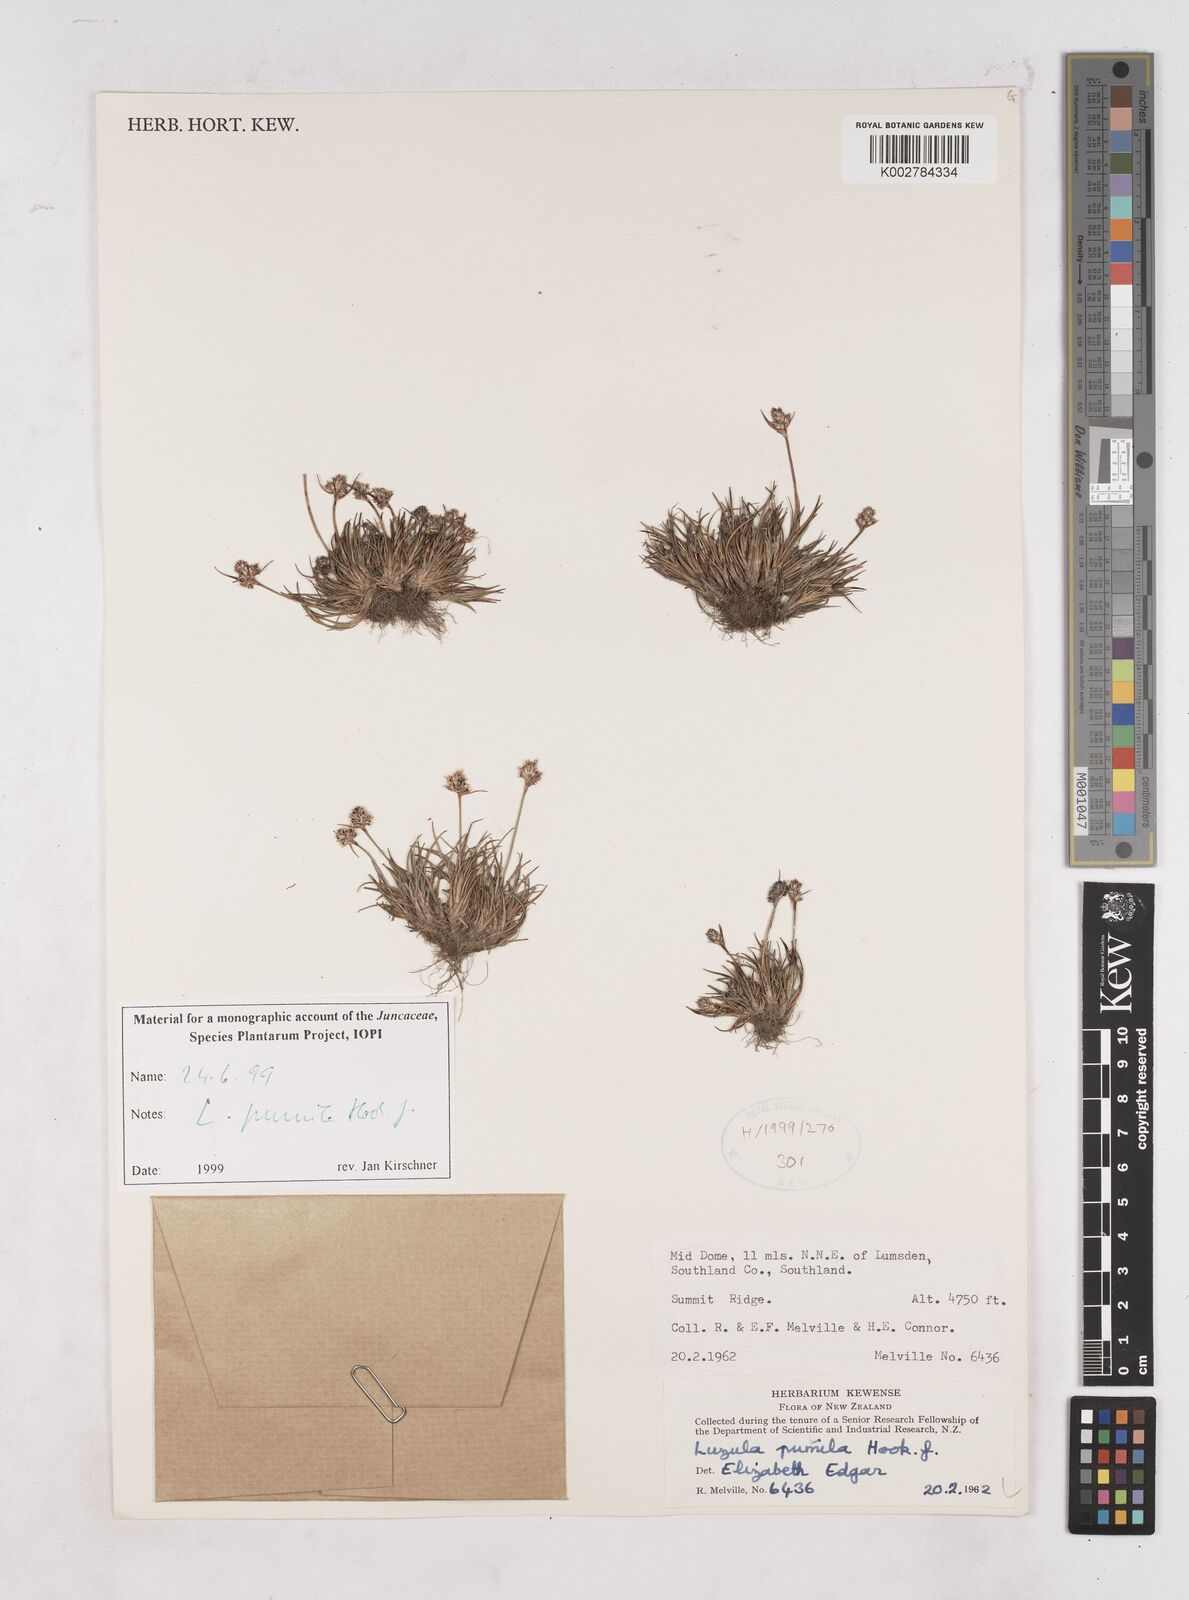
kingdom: Plantae
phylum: Tracheophyta
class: Liliopsida
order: Poales
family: Juncaceae
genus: Luzula
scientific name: Luzula pumila
